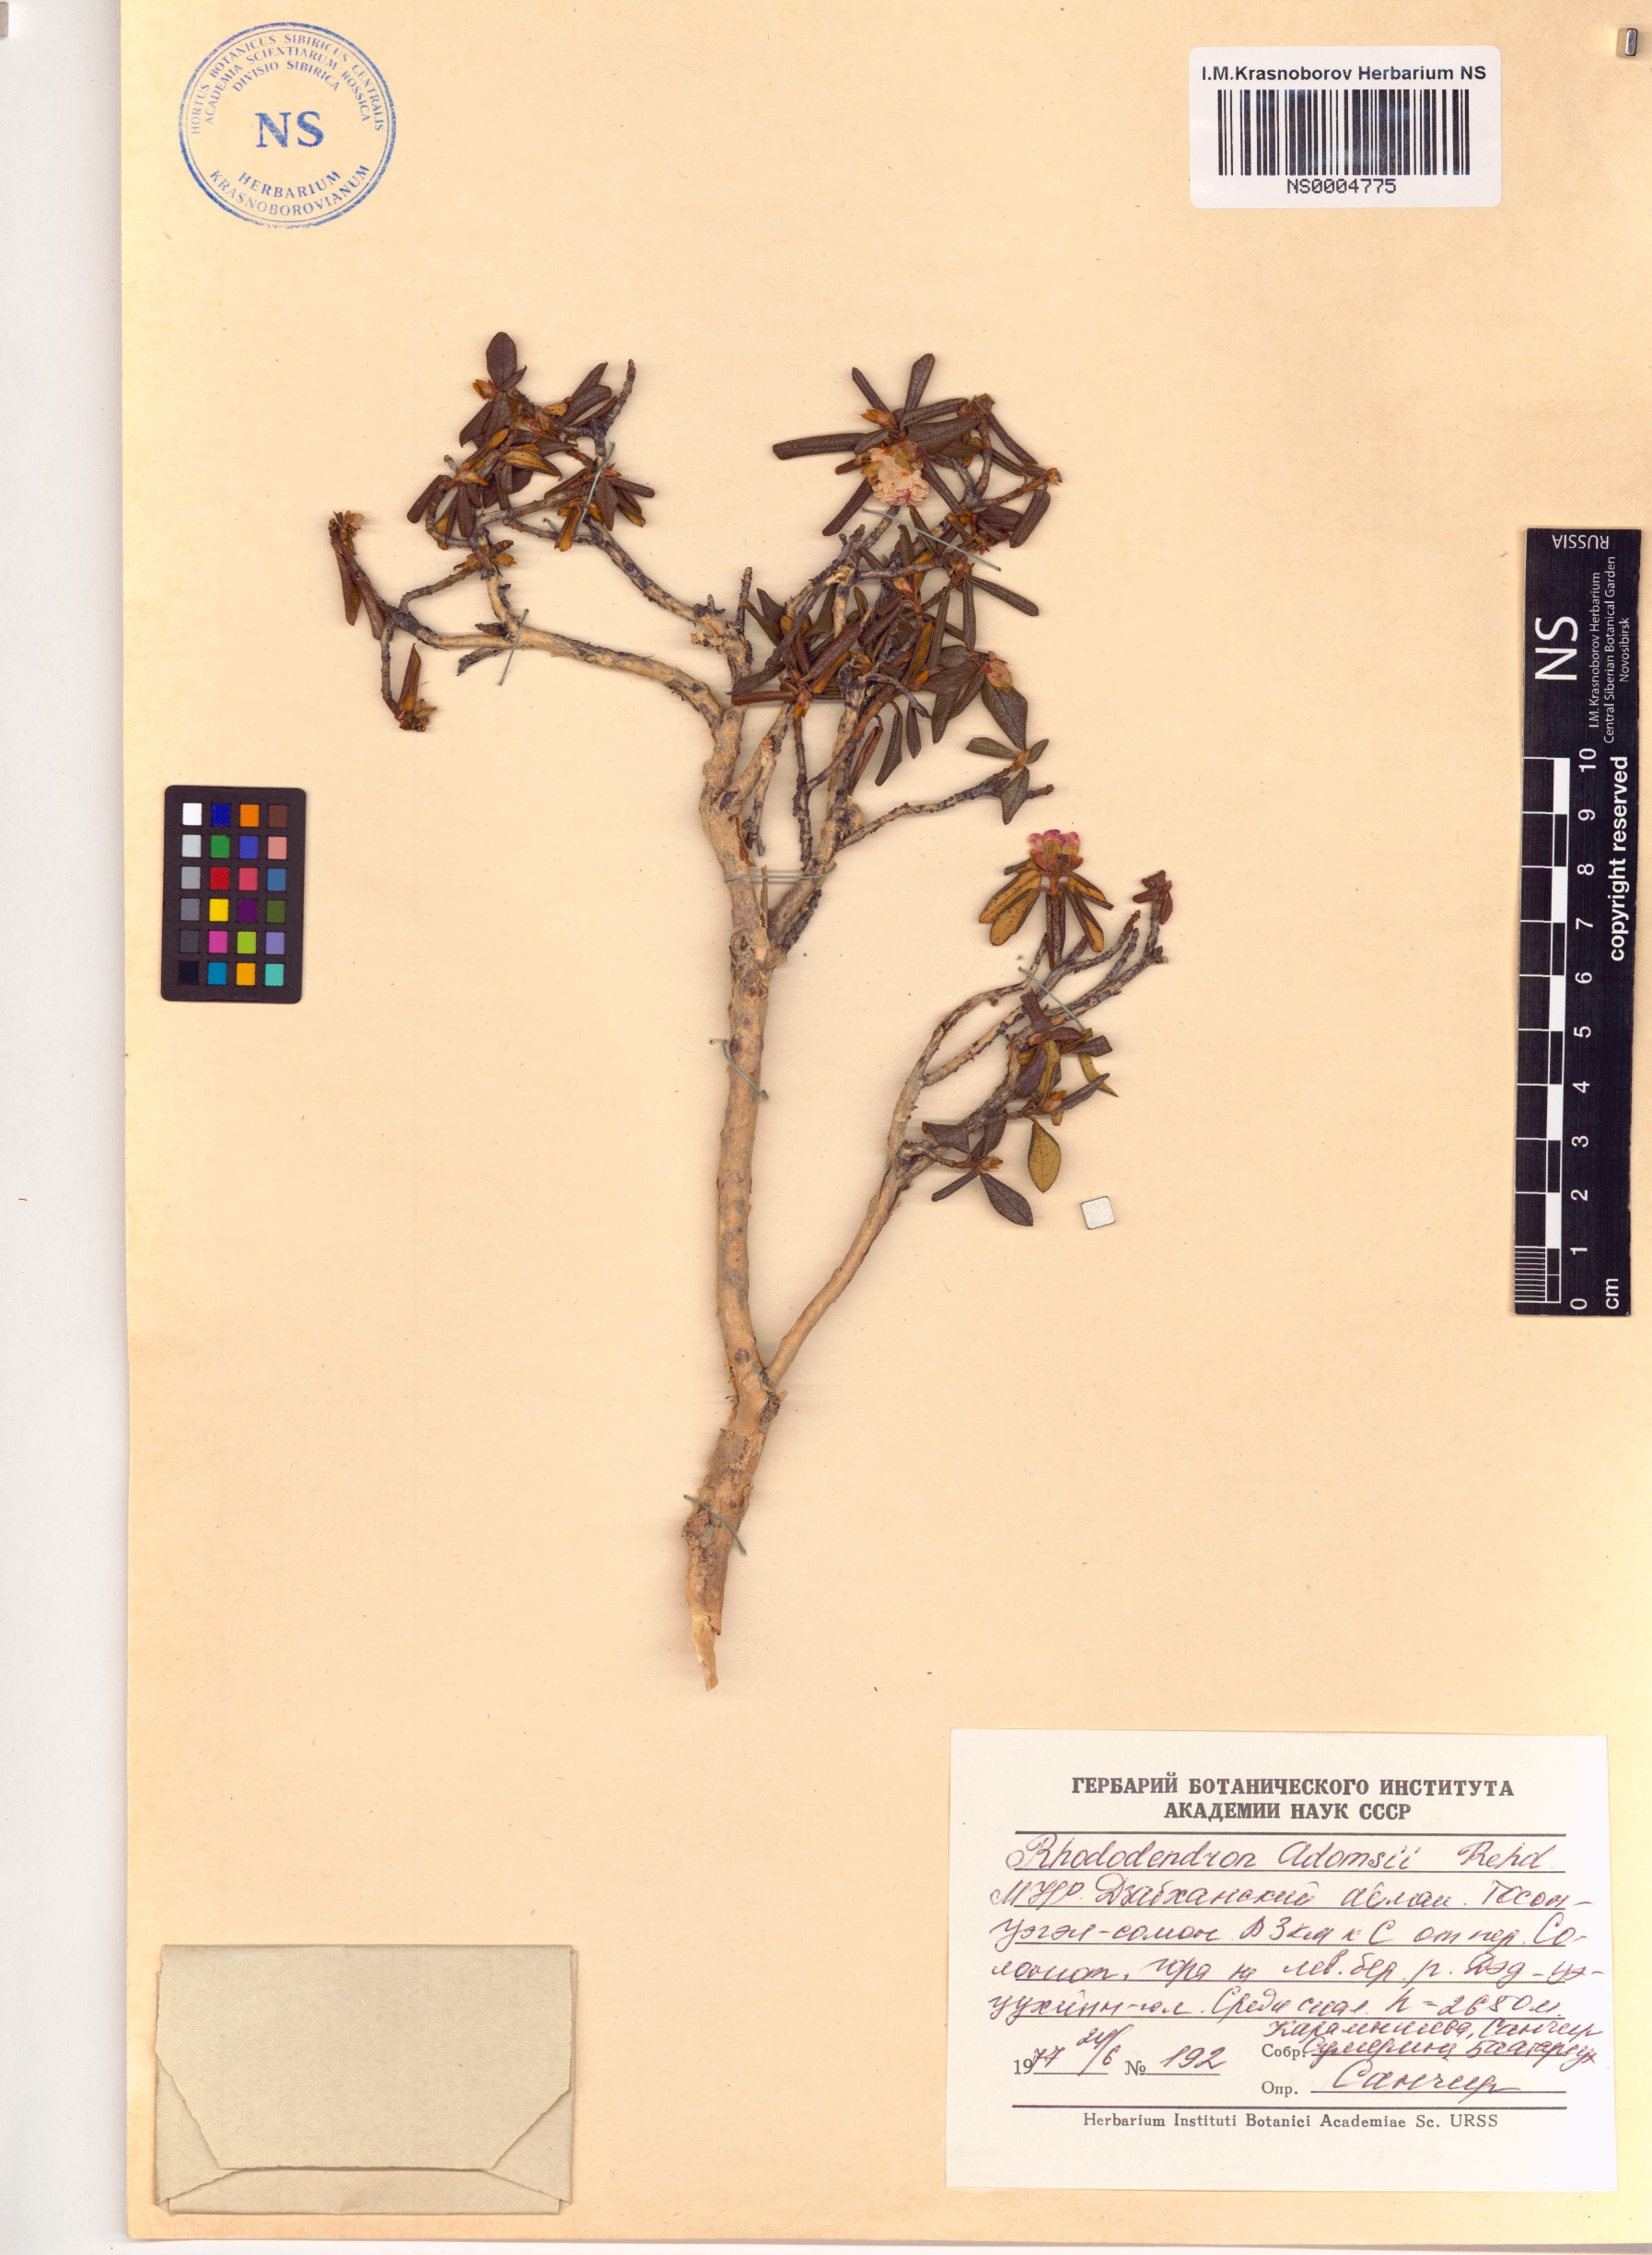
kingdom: Plantae
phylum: Tracheophyta
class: Magnoliopsida
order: Ericales
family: Ericaceae
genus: Rhododendron
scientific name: Rhododendron adamsii
